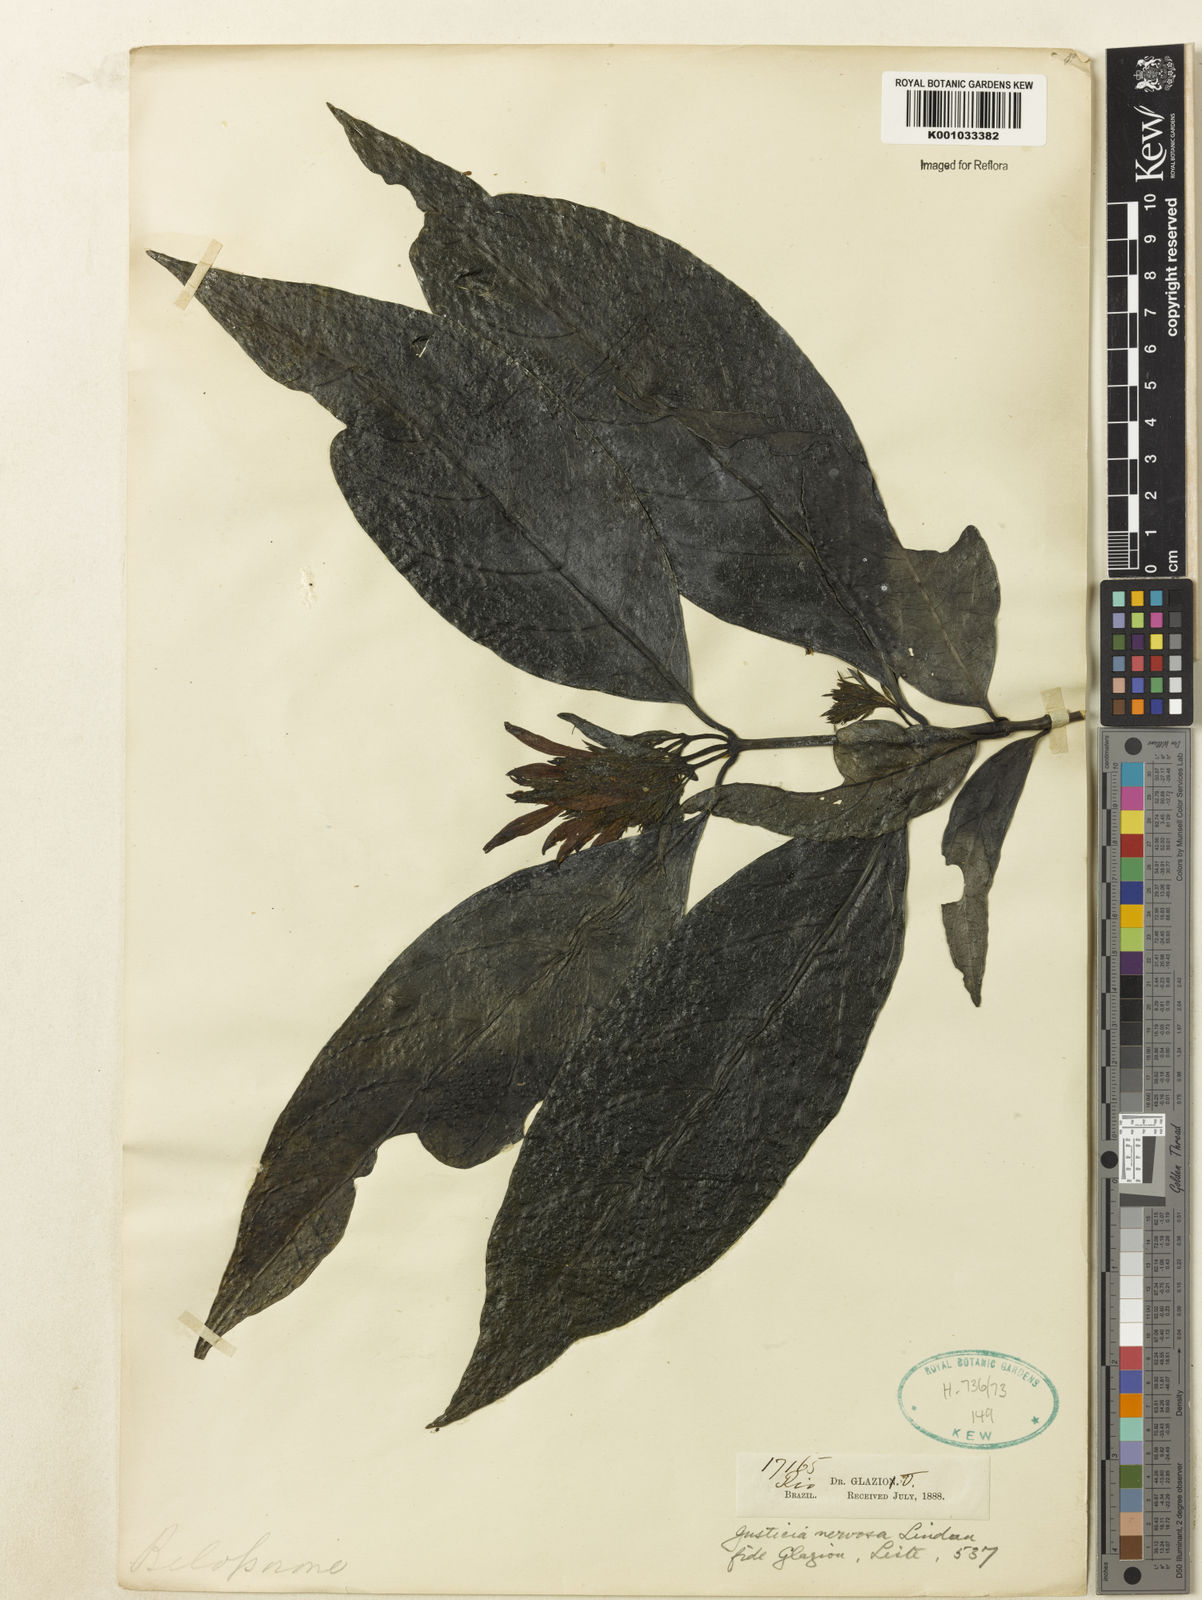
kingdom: Plantae
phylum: Tracheophyta
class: Magnoliopsida
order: Lamiales
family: Acanthaceae
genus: Eranthemum
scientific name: Eranthemum pulchellum
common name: Blue-sage
